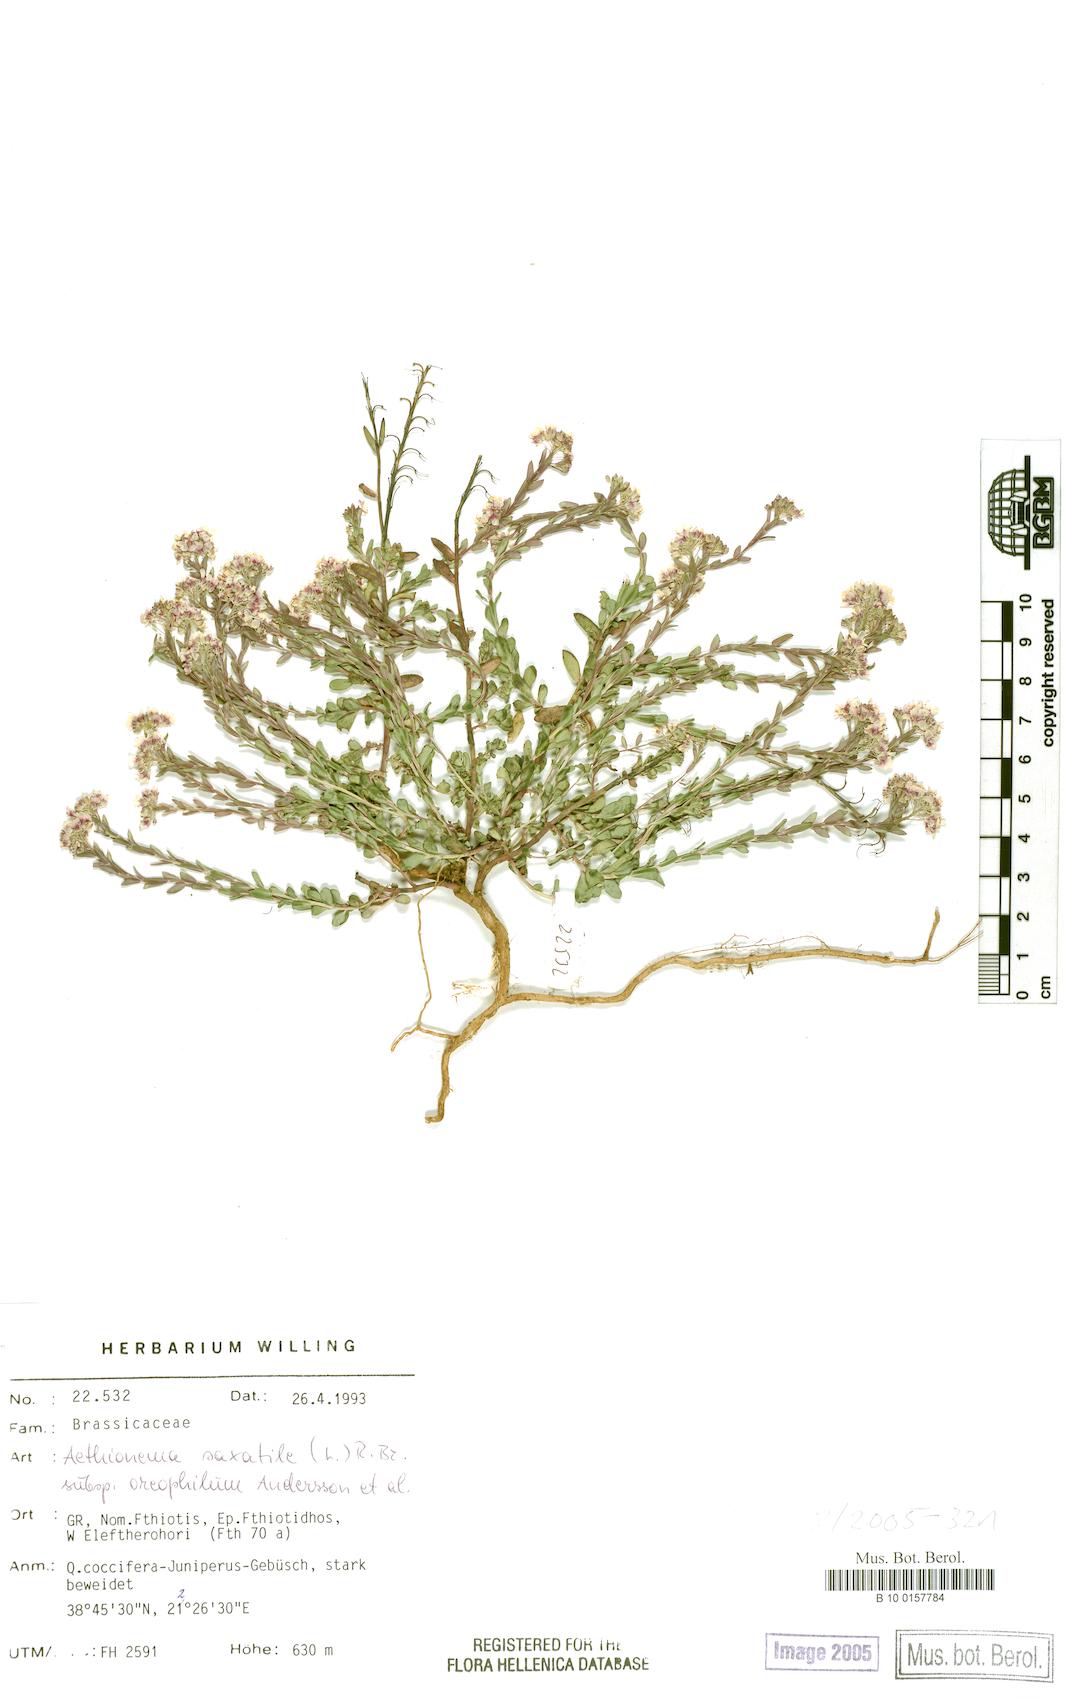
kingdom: Plantae
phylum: Tracheophyta
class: Magnoliopsida
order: Brassicales
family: Brassicaceae
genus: Aethionema
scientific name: Aethionema saxatile
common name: Burnt candytuft
